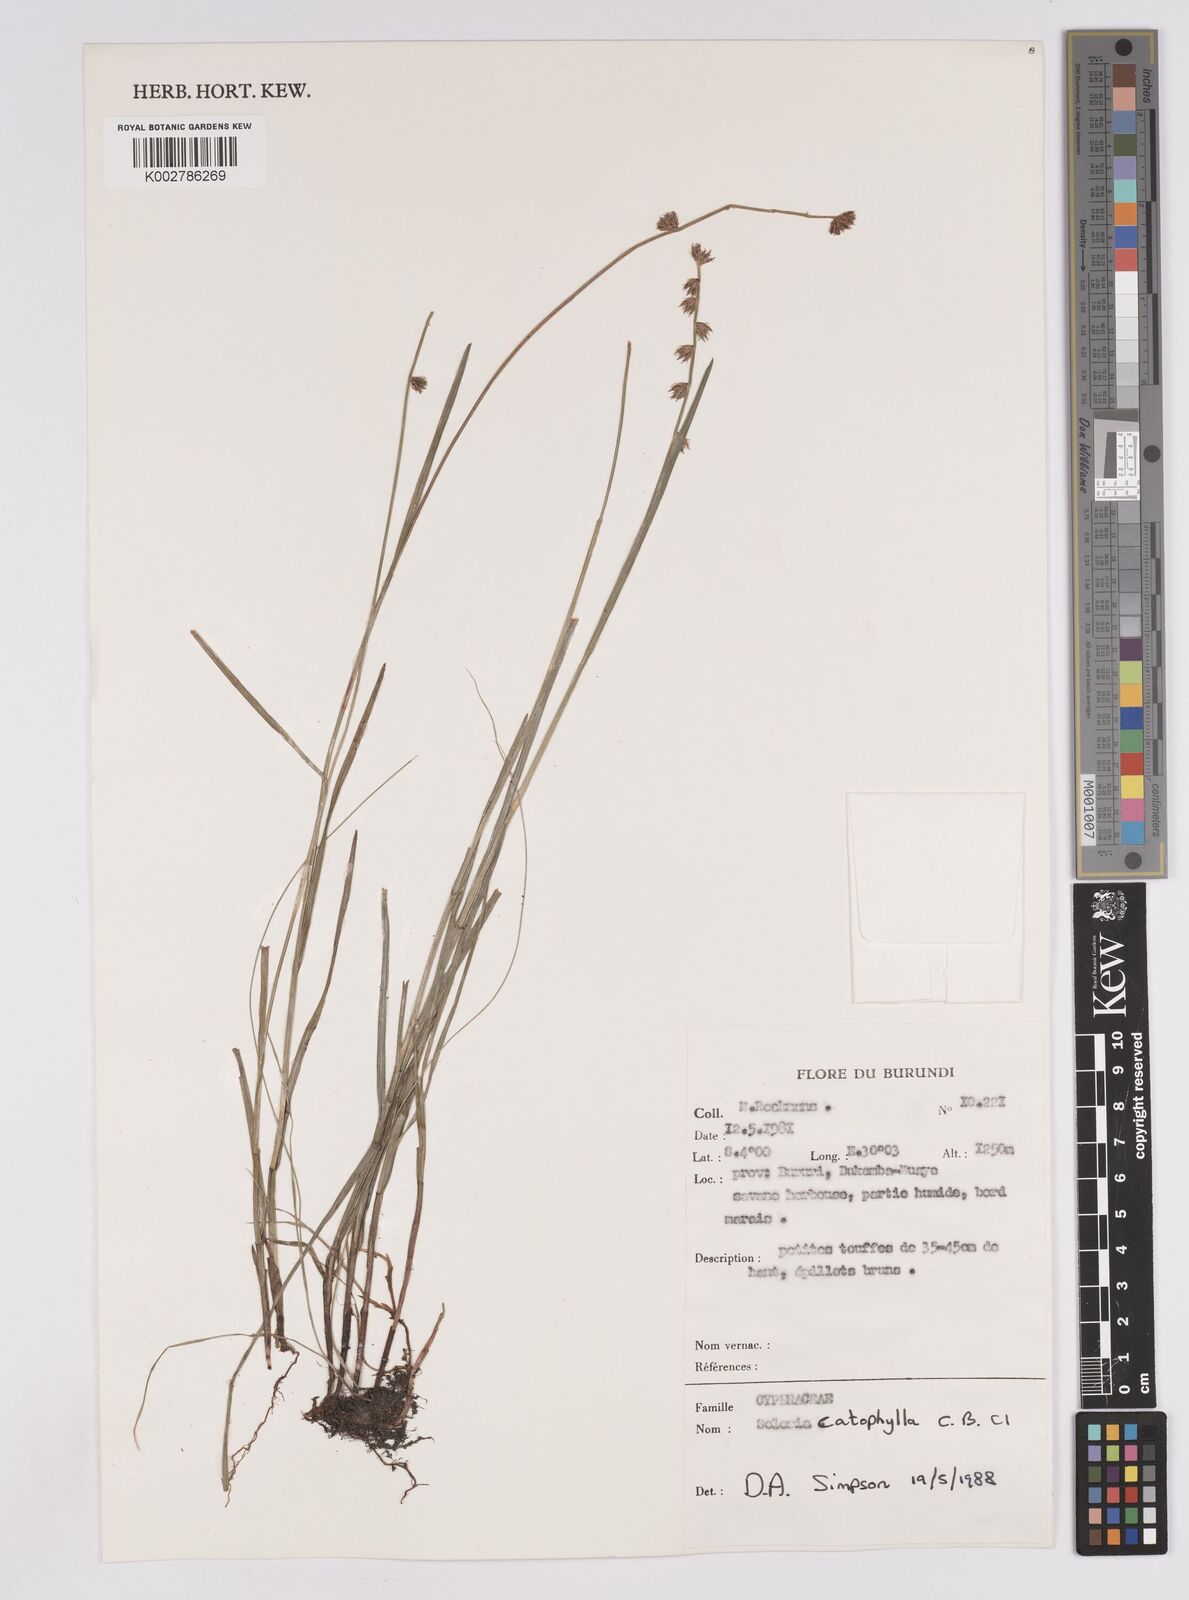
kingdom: Plantae
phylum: Tracheophyta
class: Liliopsida
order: Poales
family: Cyperaceae
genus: Scleria
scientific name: Scleria catophylla
